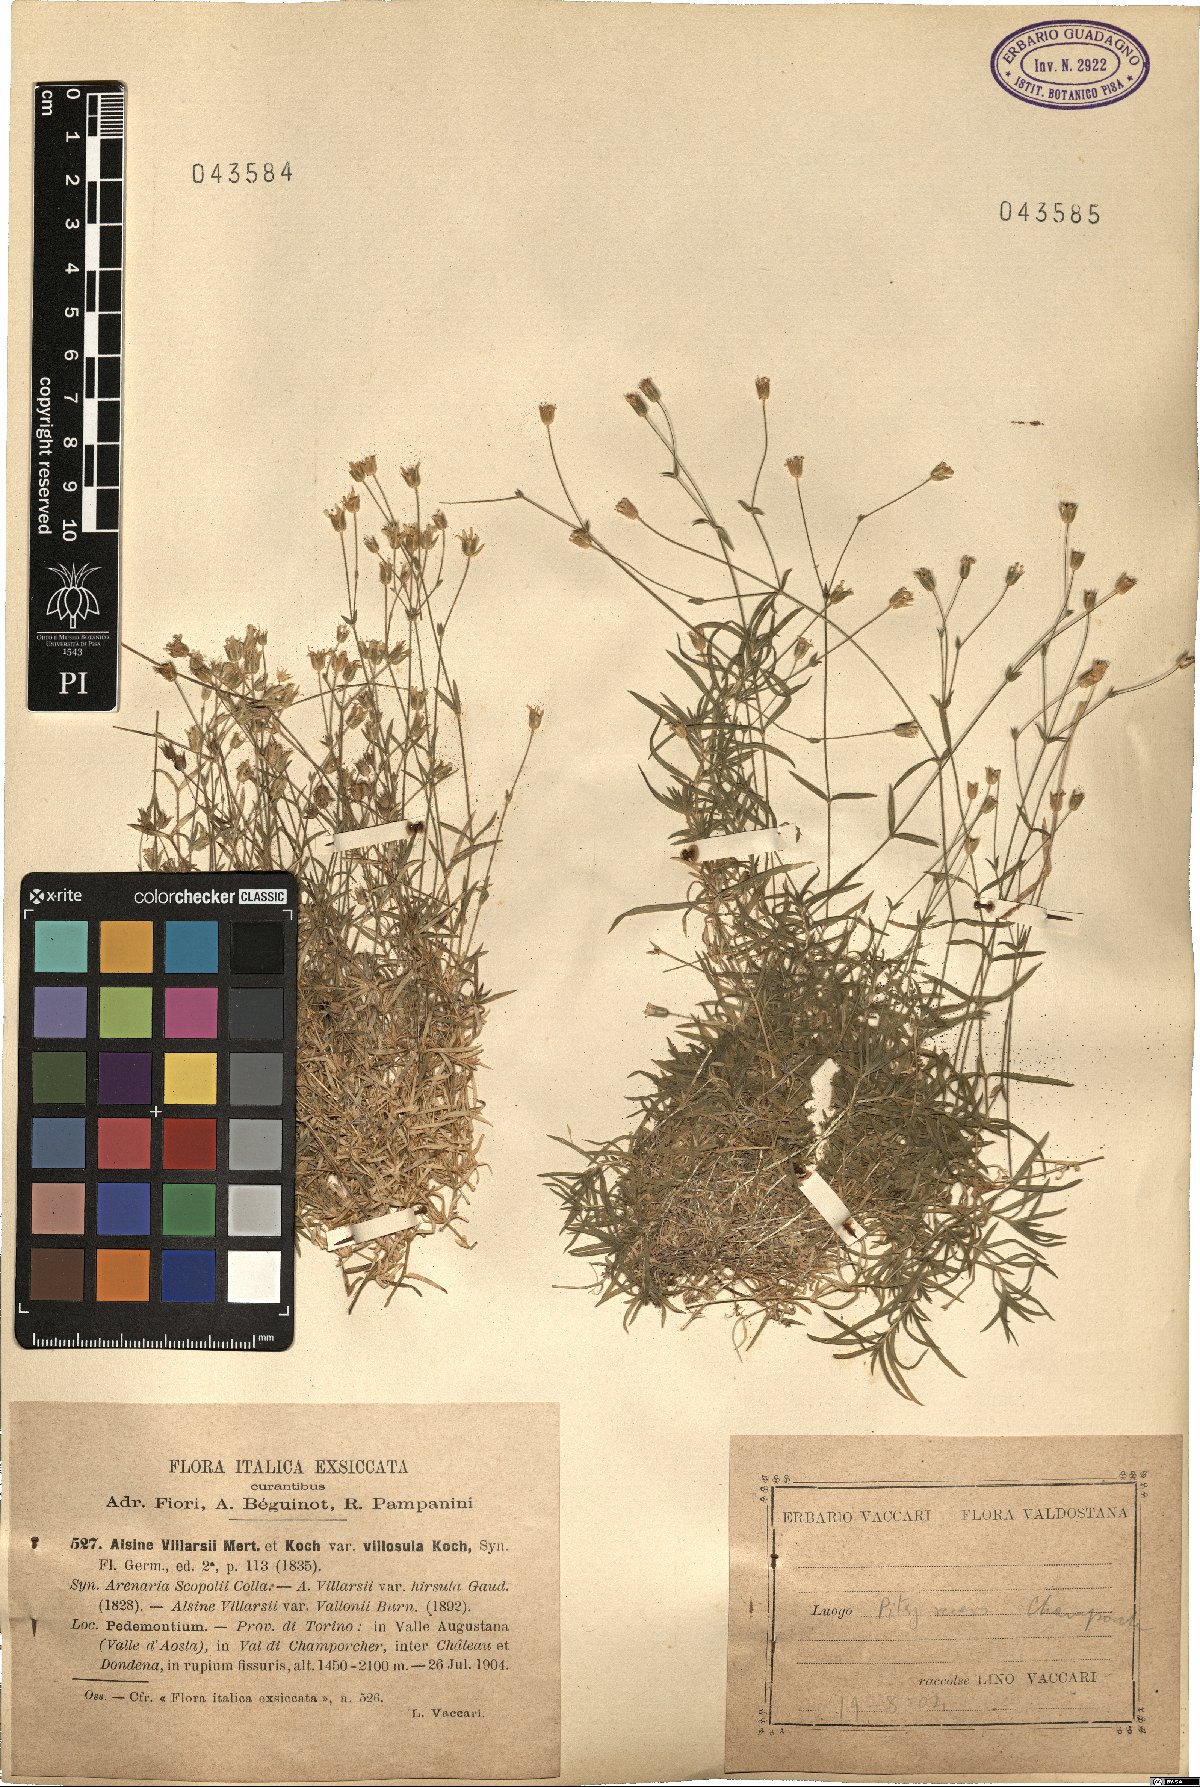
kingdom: Plantae
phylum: Tracheophyta
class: Magnoliopsida
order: Caryophyllales
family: Caryophyllaceae
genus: Minuartia
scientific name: Minuartia hamata
